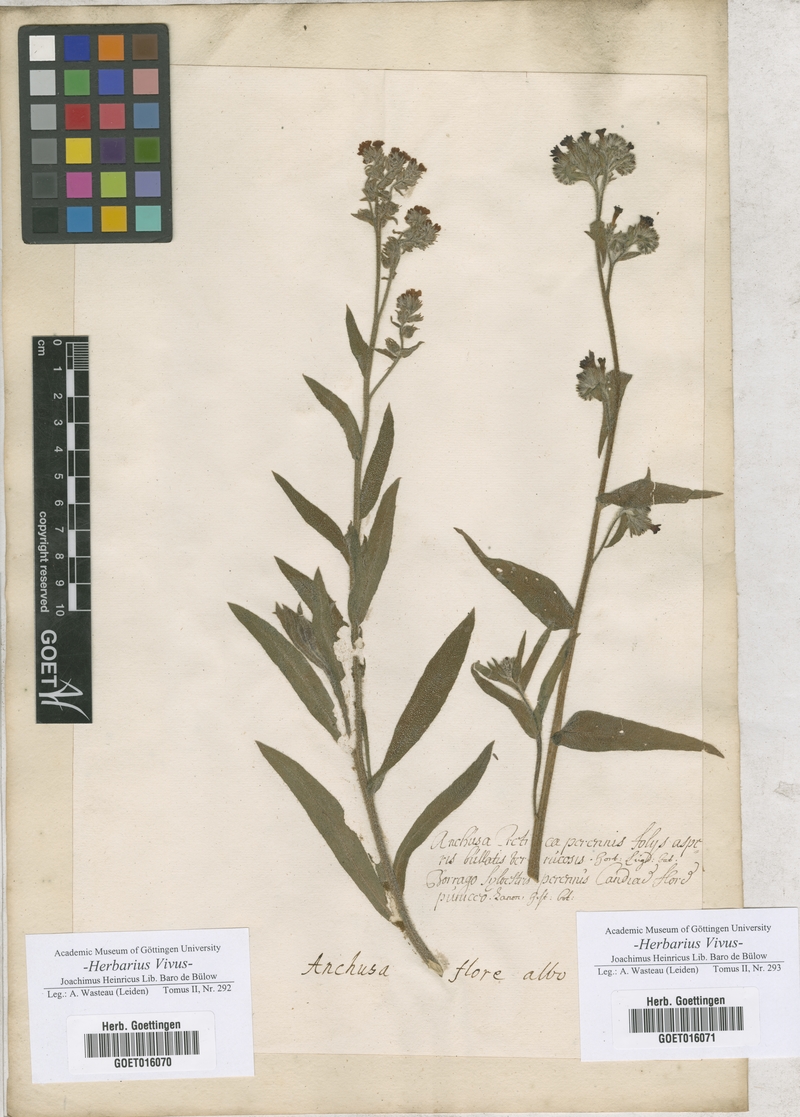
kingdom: Plantae
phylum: Tracheophyta
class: Magnoliopsida
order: Boraginales
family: Boraginaceae
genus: Anchusa
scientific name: Anchusa
